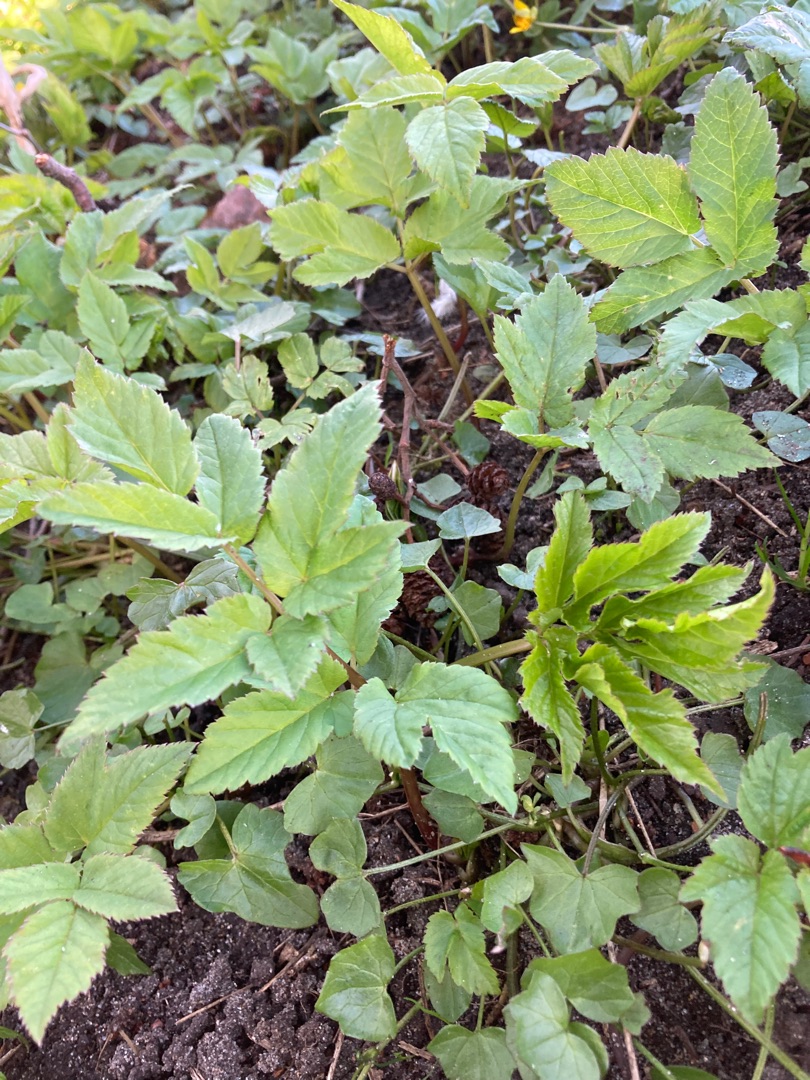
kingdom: Plantae
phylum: Tracheophyta
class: Magnoliopsida
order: Apiales
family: Apiaceae
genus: Aegopodium
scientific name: Aegopodium podagraria
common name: Skvalderkål
